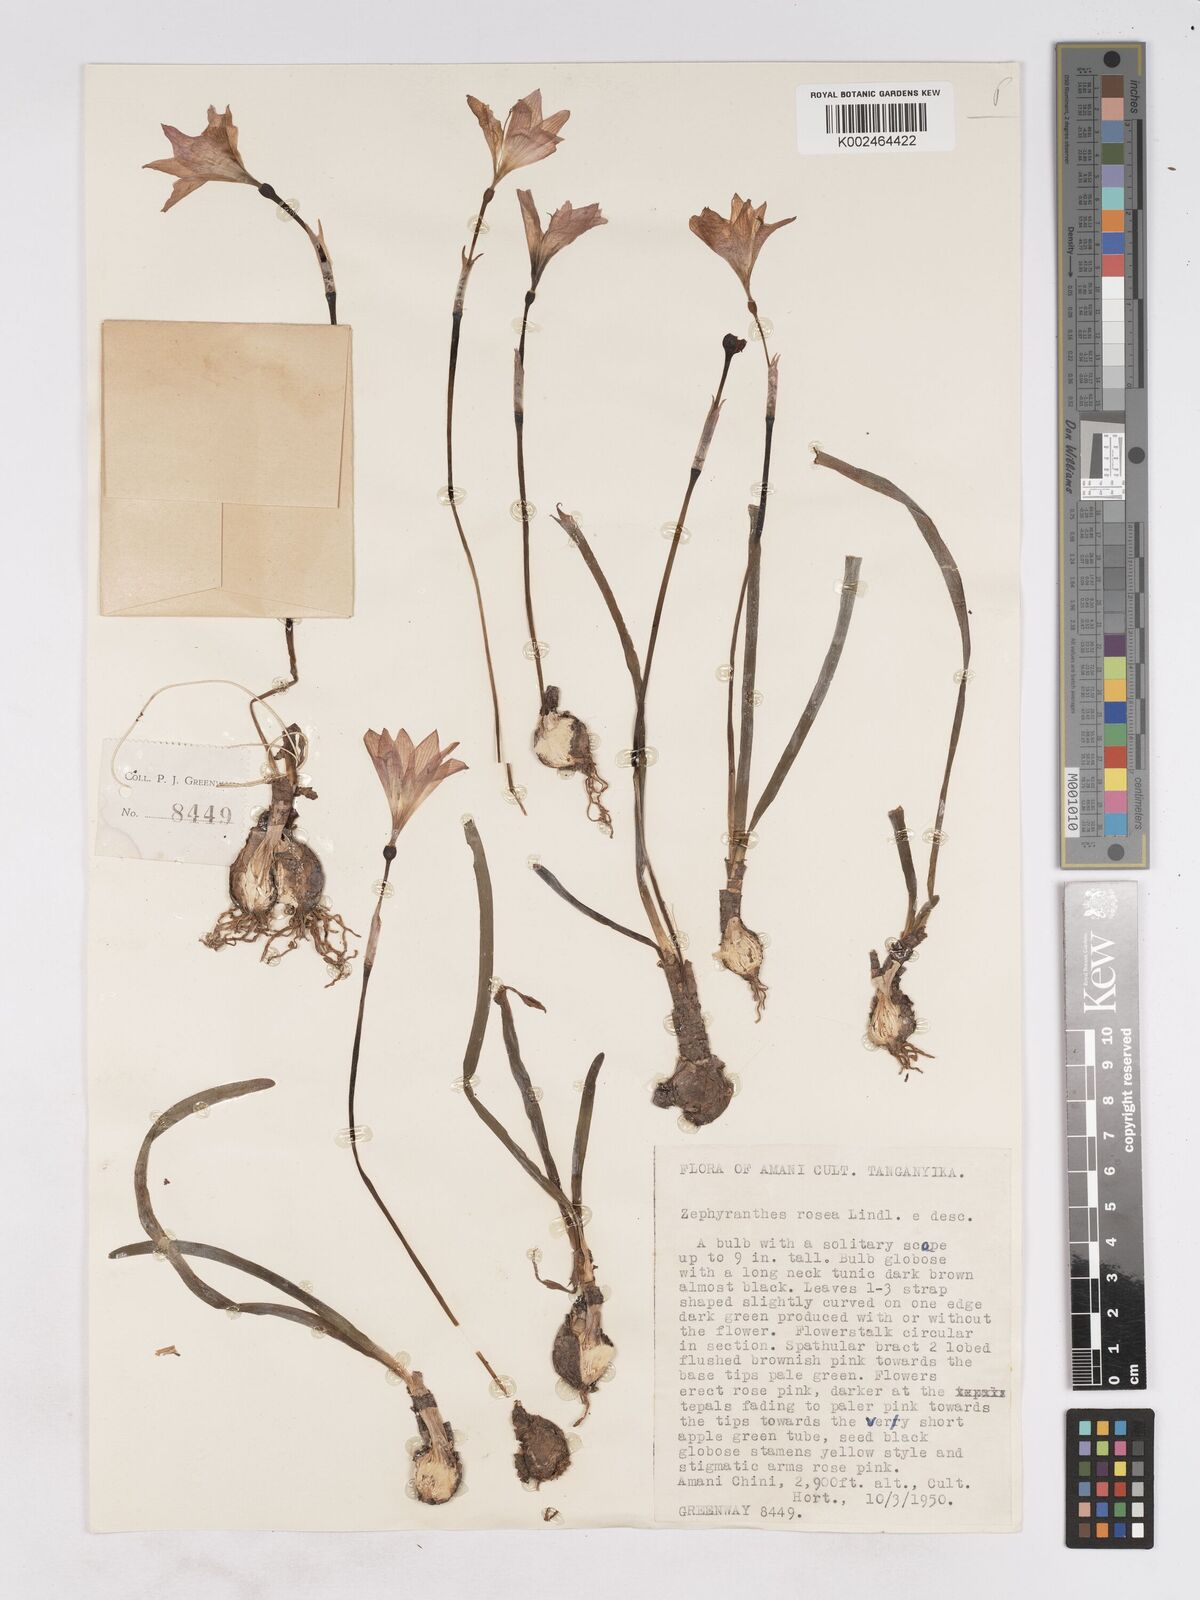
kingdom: Plantae
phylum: Tracheophyta
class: Liliopsida
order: Asparagales
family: Amaryllidaceae
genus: Zephyranthes
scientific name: Zephyranthes rosea
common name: Cuban zephyrlily
